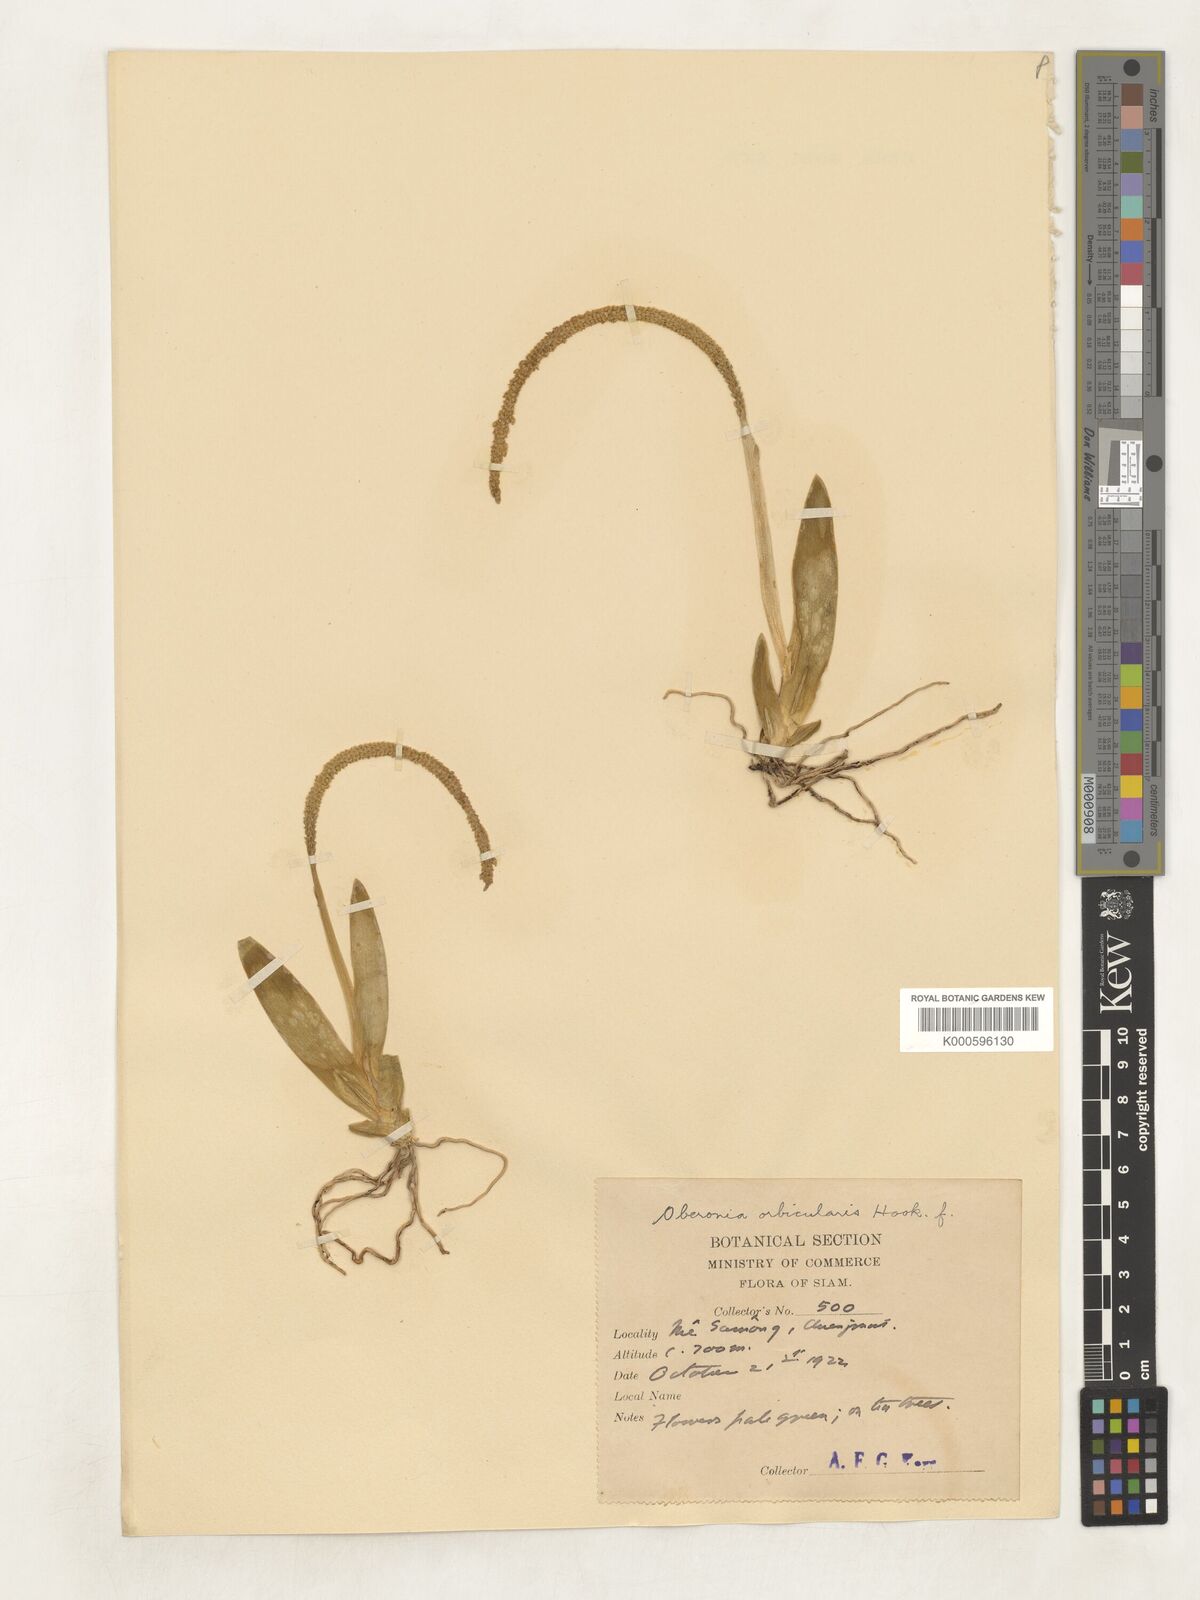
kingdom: Plantae
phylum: Tracheophyta
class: Liliopsida
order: Asparagales
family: Orchidaceae
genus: Oberonia
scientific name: Oberonia orbicularis
